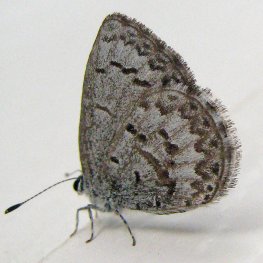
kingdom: Animalia
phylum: Arthropoda
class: Insecta
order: Lepidoptera
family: Lycaenidae
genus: Celastrina
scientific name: Celastrina lucia
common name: Northern Spring Azure
